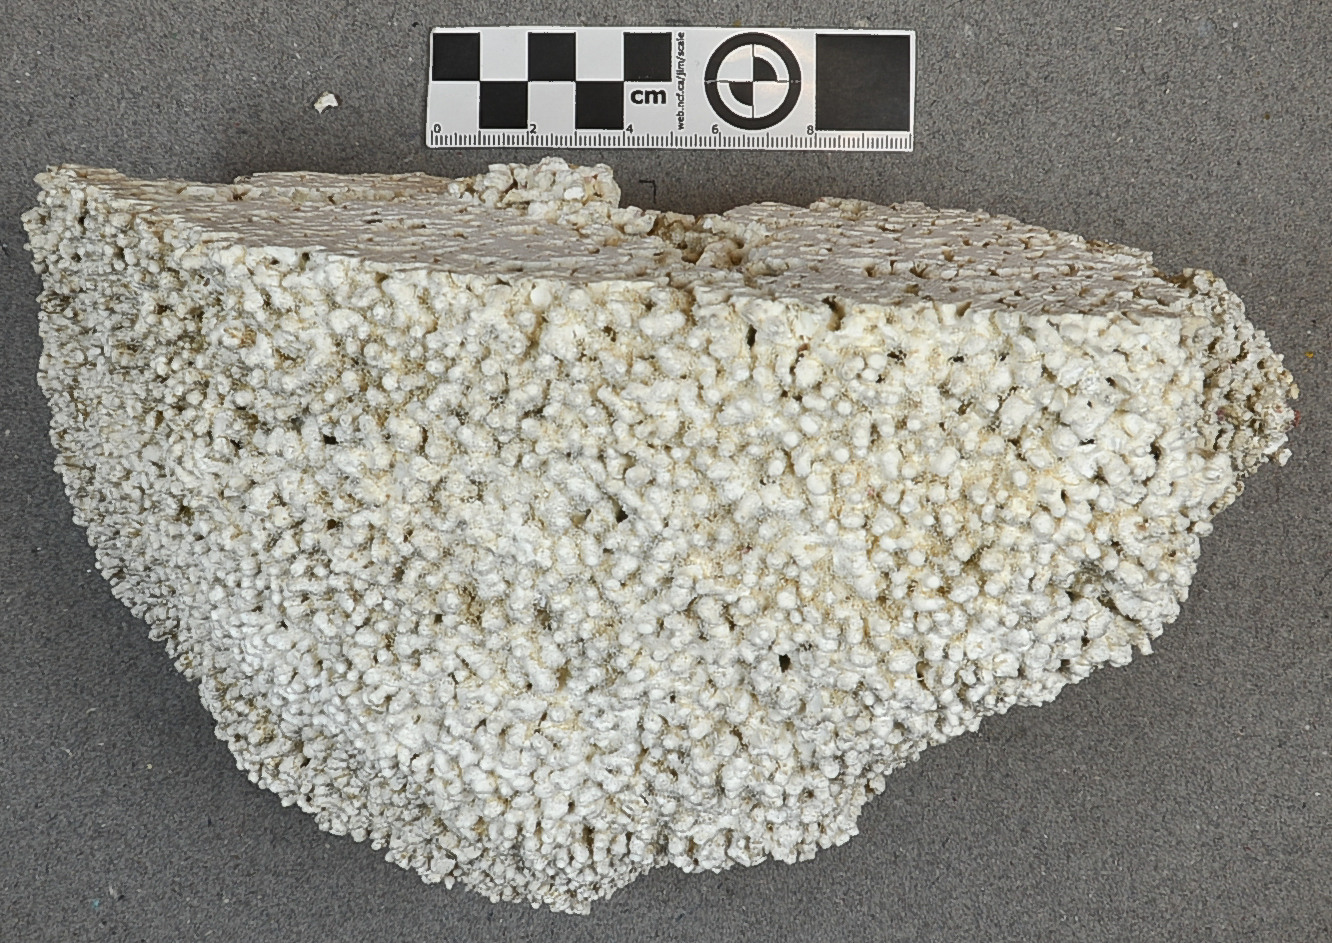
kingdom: Plantae
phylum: Rhodophyta
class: Florideophyceae
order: Corallinales
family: Porolithaceae
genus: Porolithon
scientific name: Porolithon gardineri
